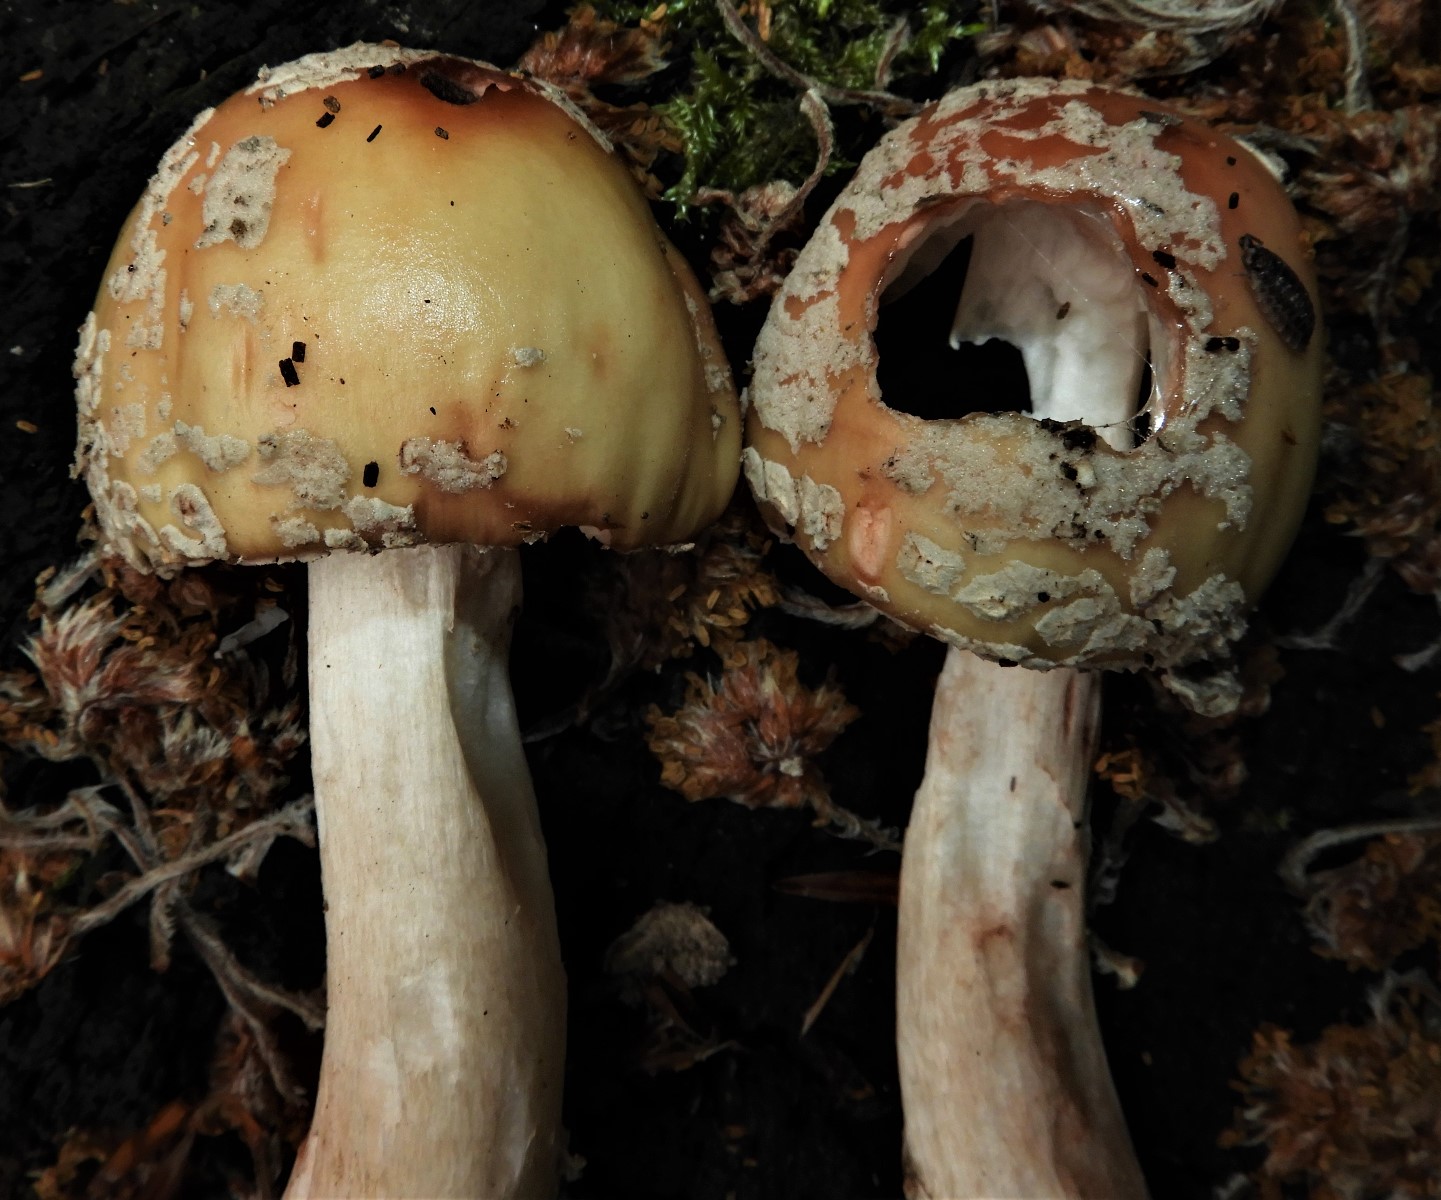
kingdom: Fungi
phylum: Basidiomycota
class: Agaricomycetes
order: Agaricales
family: Amanitaceae
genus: Amanita
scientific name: Amanita rubescens
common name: rødmende fluesvamp
